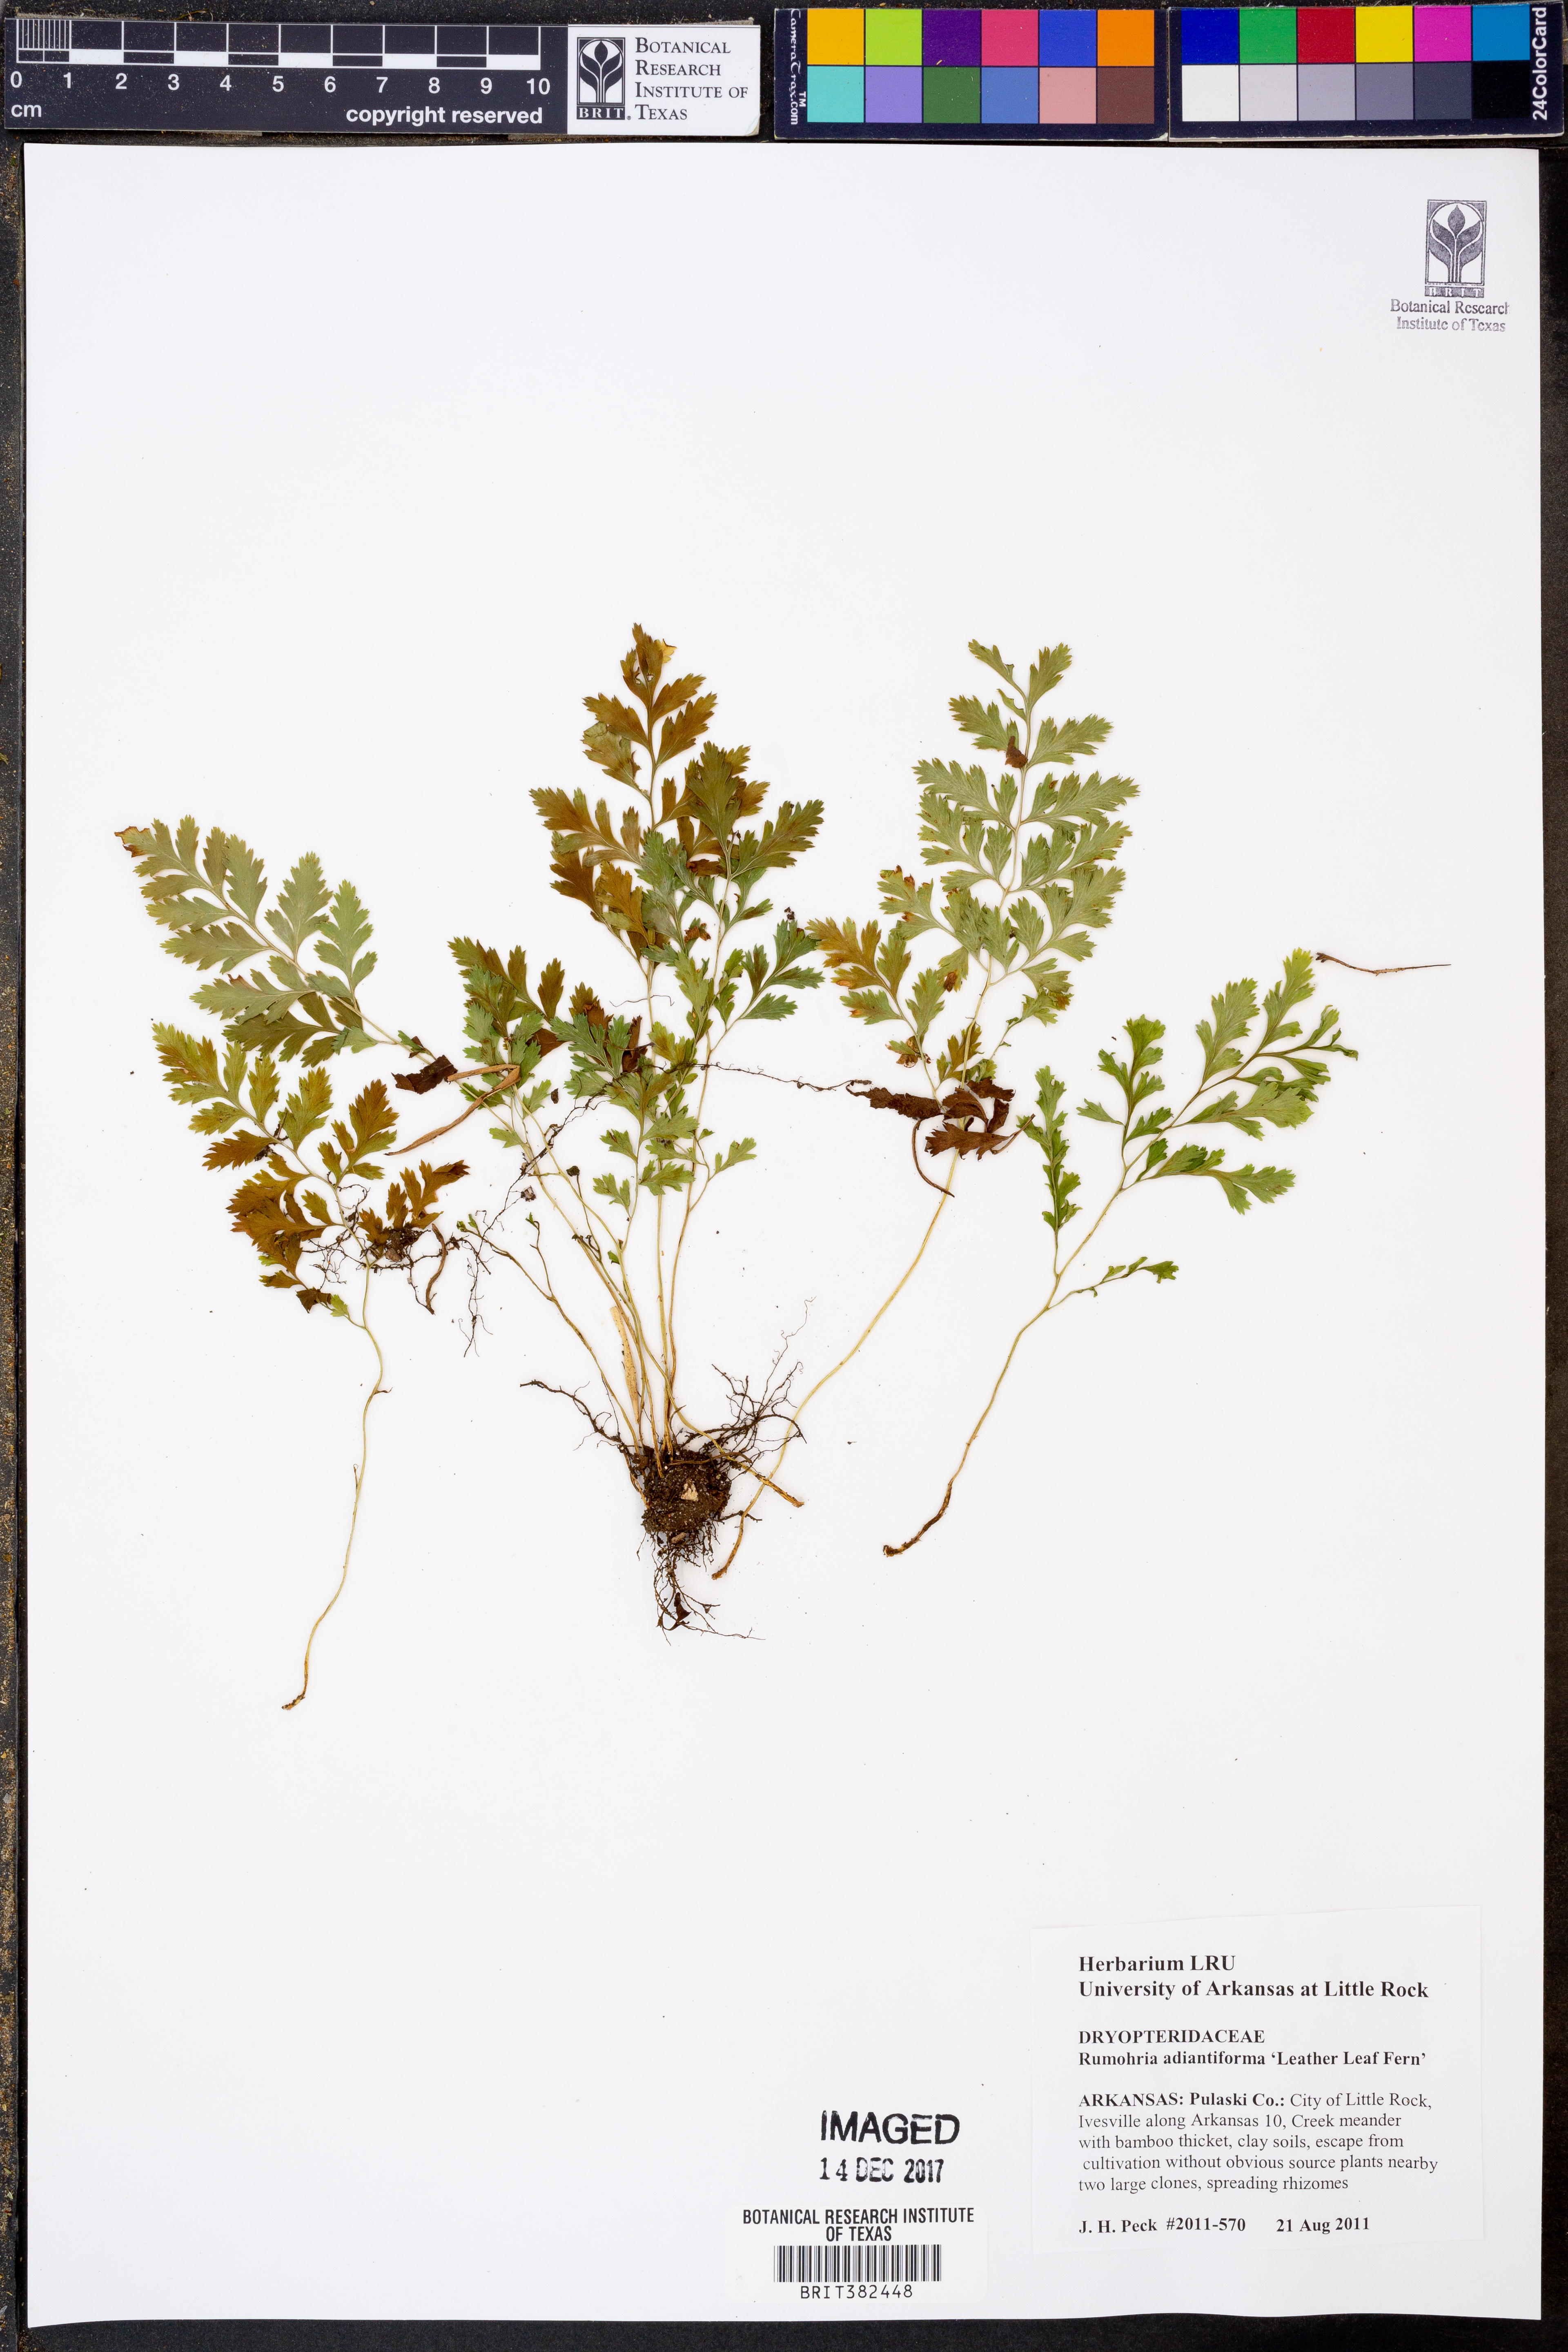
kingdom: Plantae
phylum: Tracheophyta
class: Polypodiopsida
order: Polypodiales
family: Dryopteridaceae
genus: Rumohra
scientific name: Rumohra adiantiformis
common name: Leather fern
